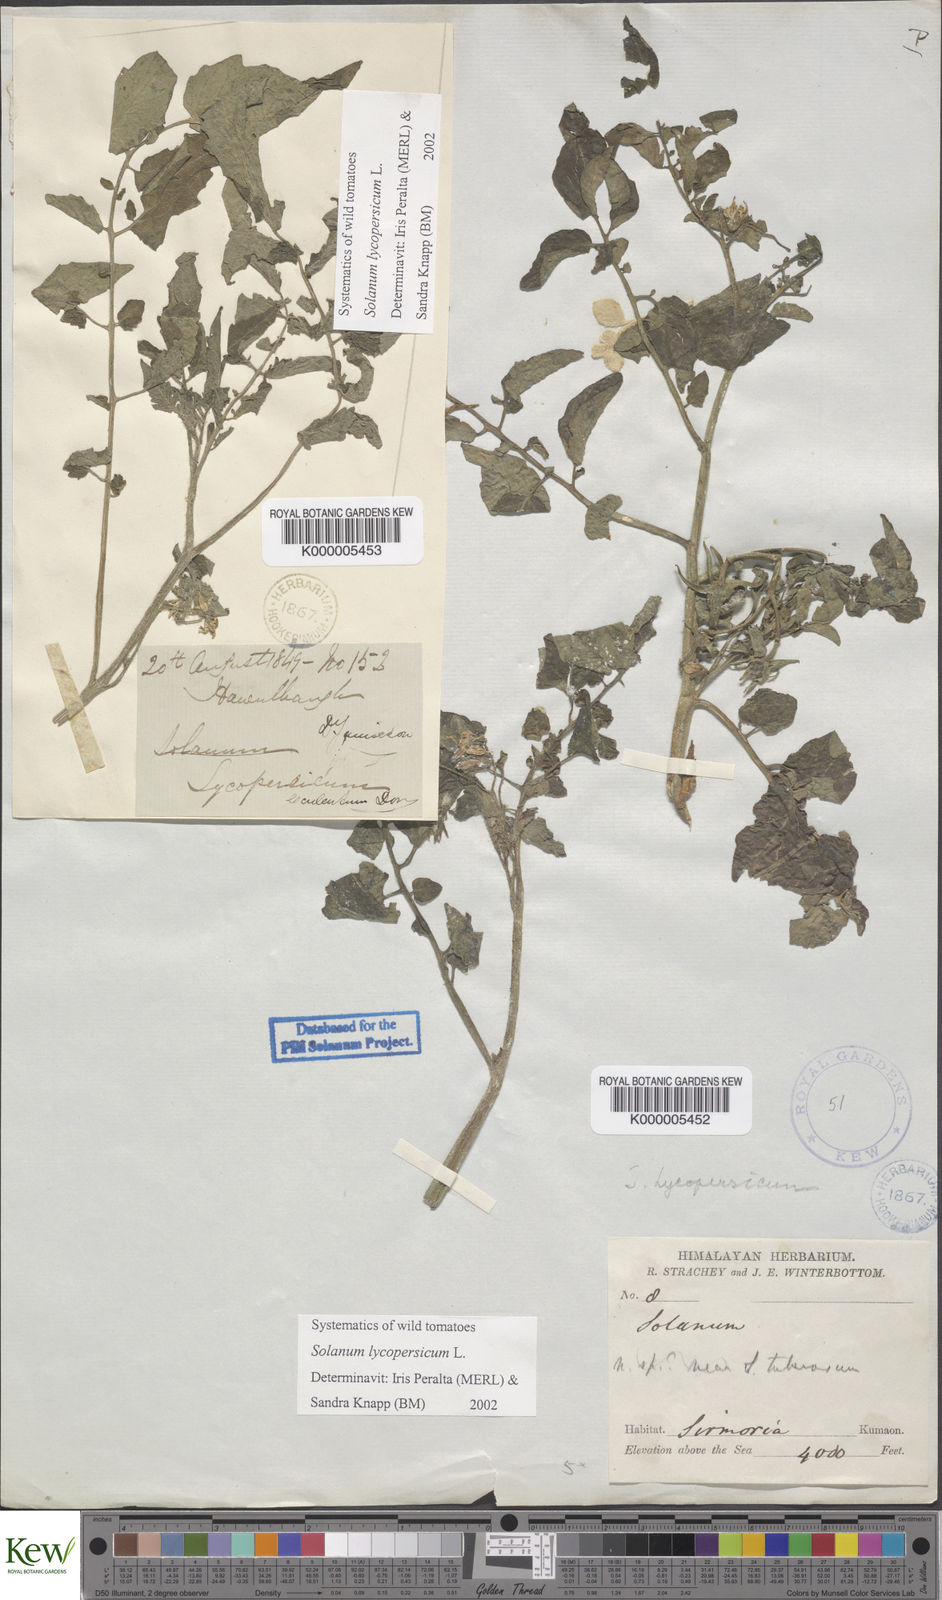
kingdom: Plantae
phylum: Tracheophyta
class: Magnoliopsida
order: Solanales
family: Solanaceae
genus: Solanum
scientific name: Solanum lycopersicum
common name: Garden tomato
